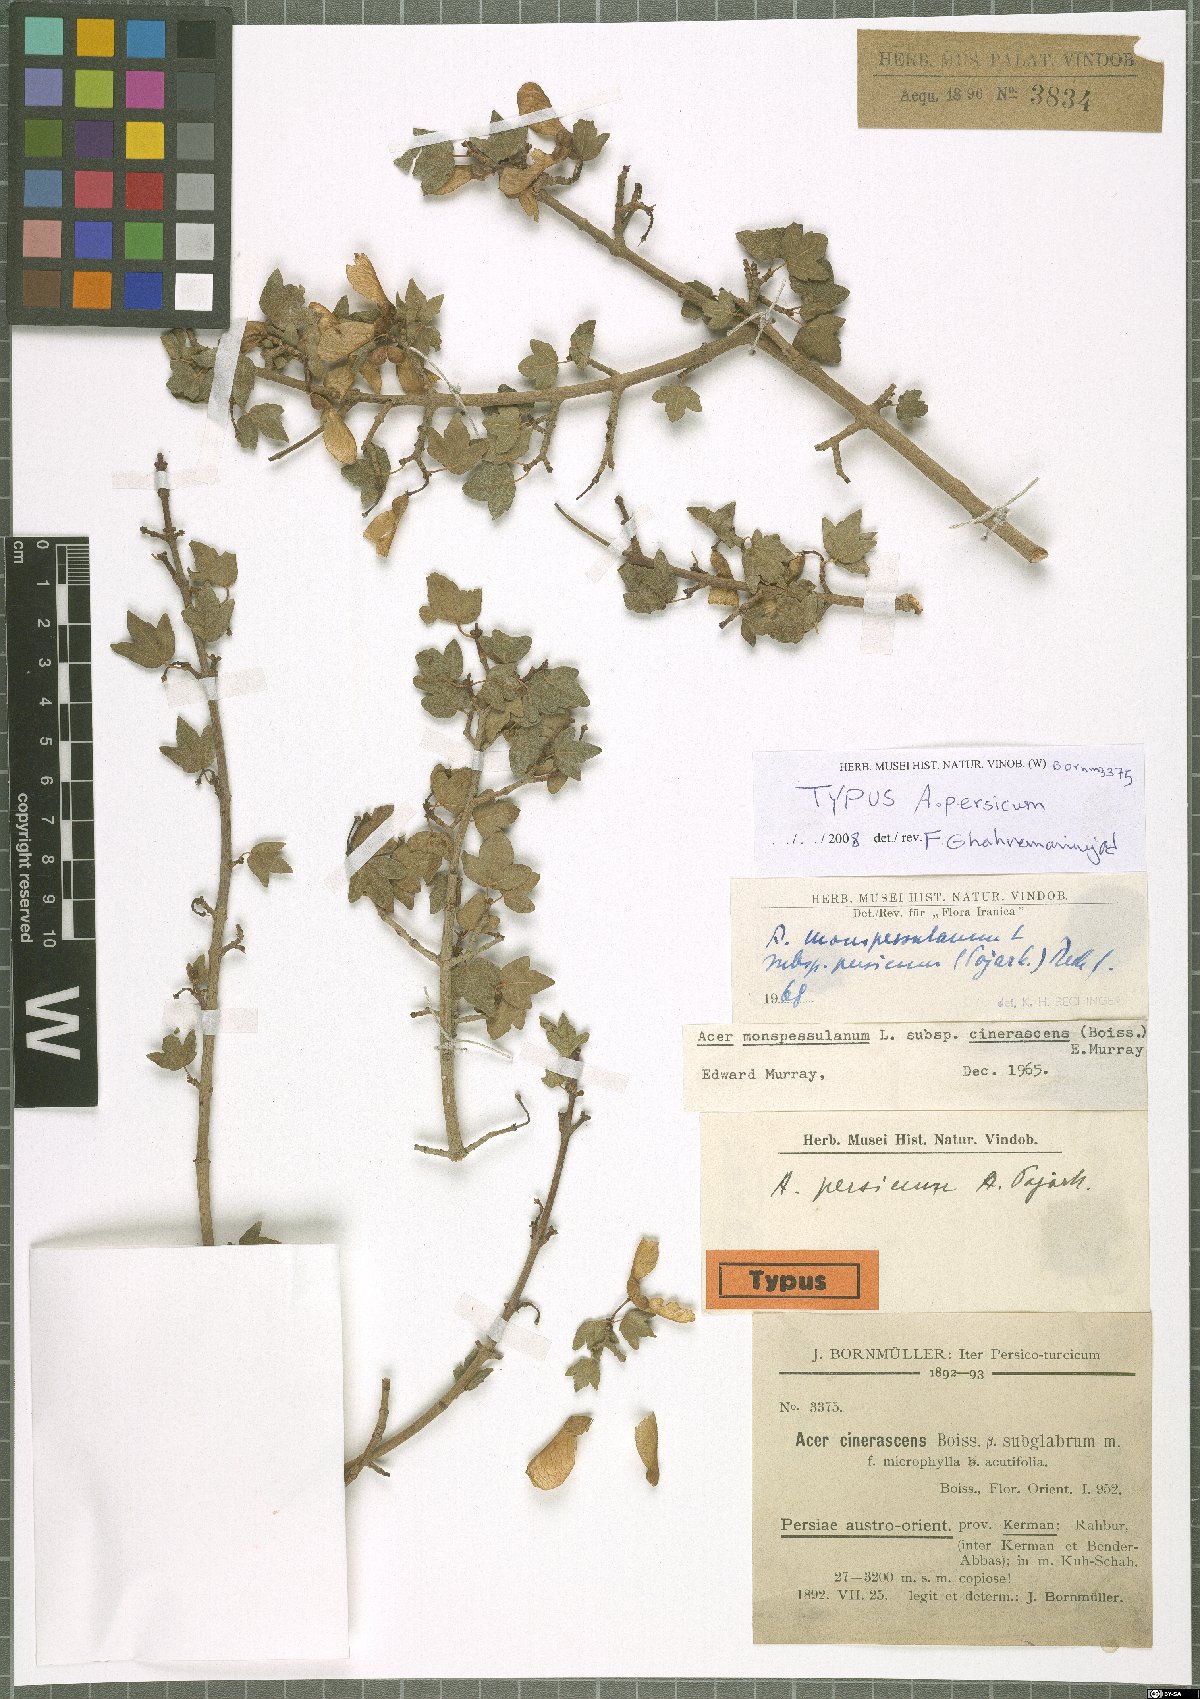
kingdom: Plantae
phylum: Tracheophyta
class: Magnoliopsida
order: Sapindales
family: Sapindaceae
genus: Acer
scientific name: Acer monspessulanum
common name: Montpellier maple
